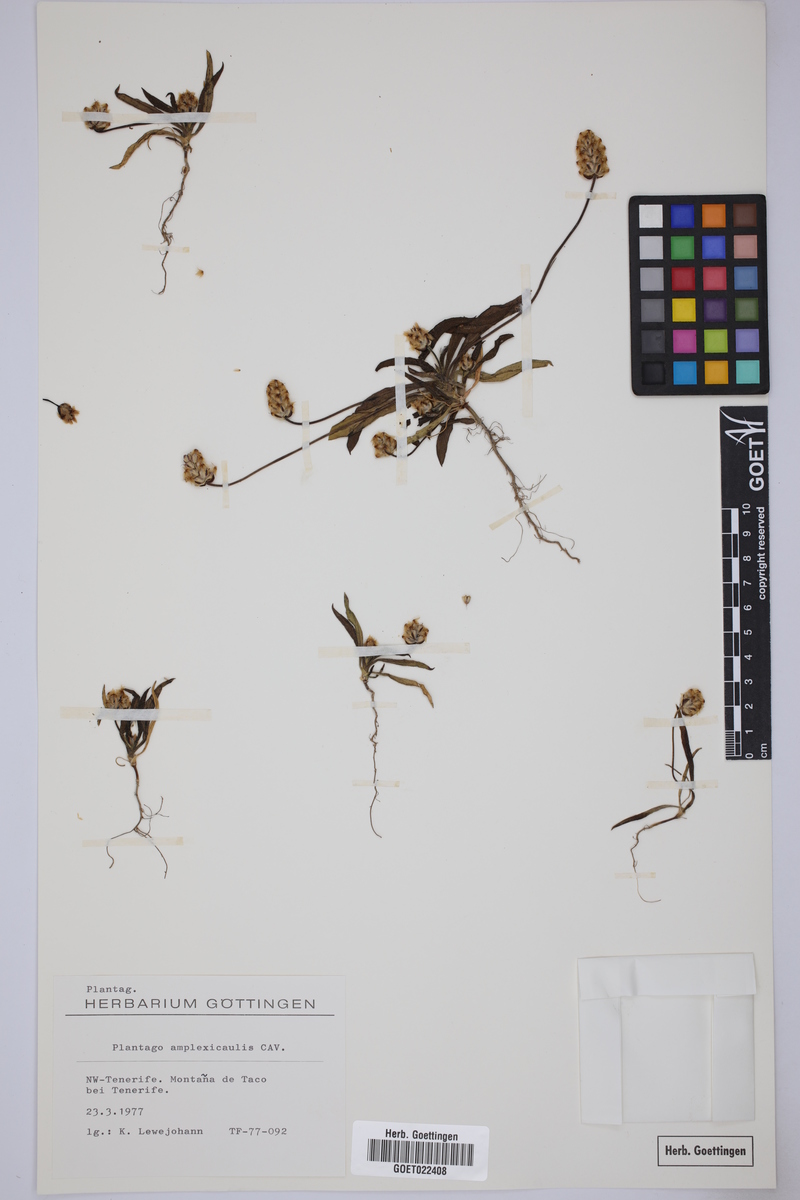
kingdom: Plantae
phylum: Tracheophyta
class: Magnoliopsida
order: Lamiales
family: Plantaginaceae
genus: Plantago
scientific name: Plantago amplexicaulis
